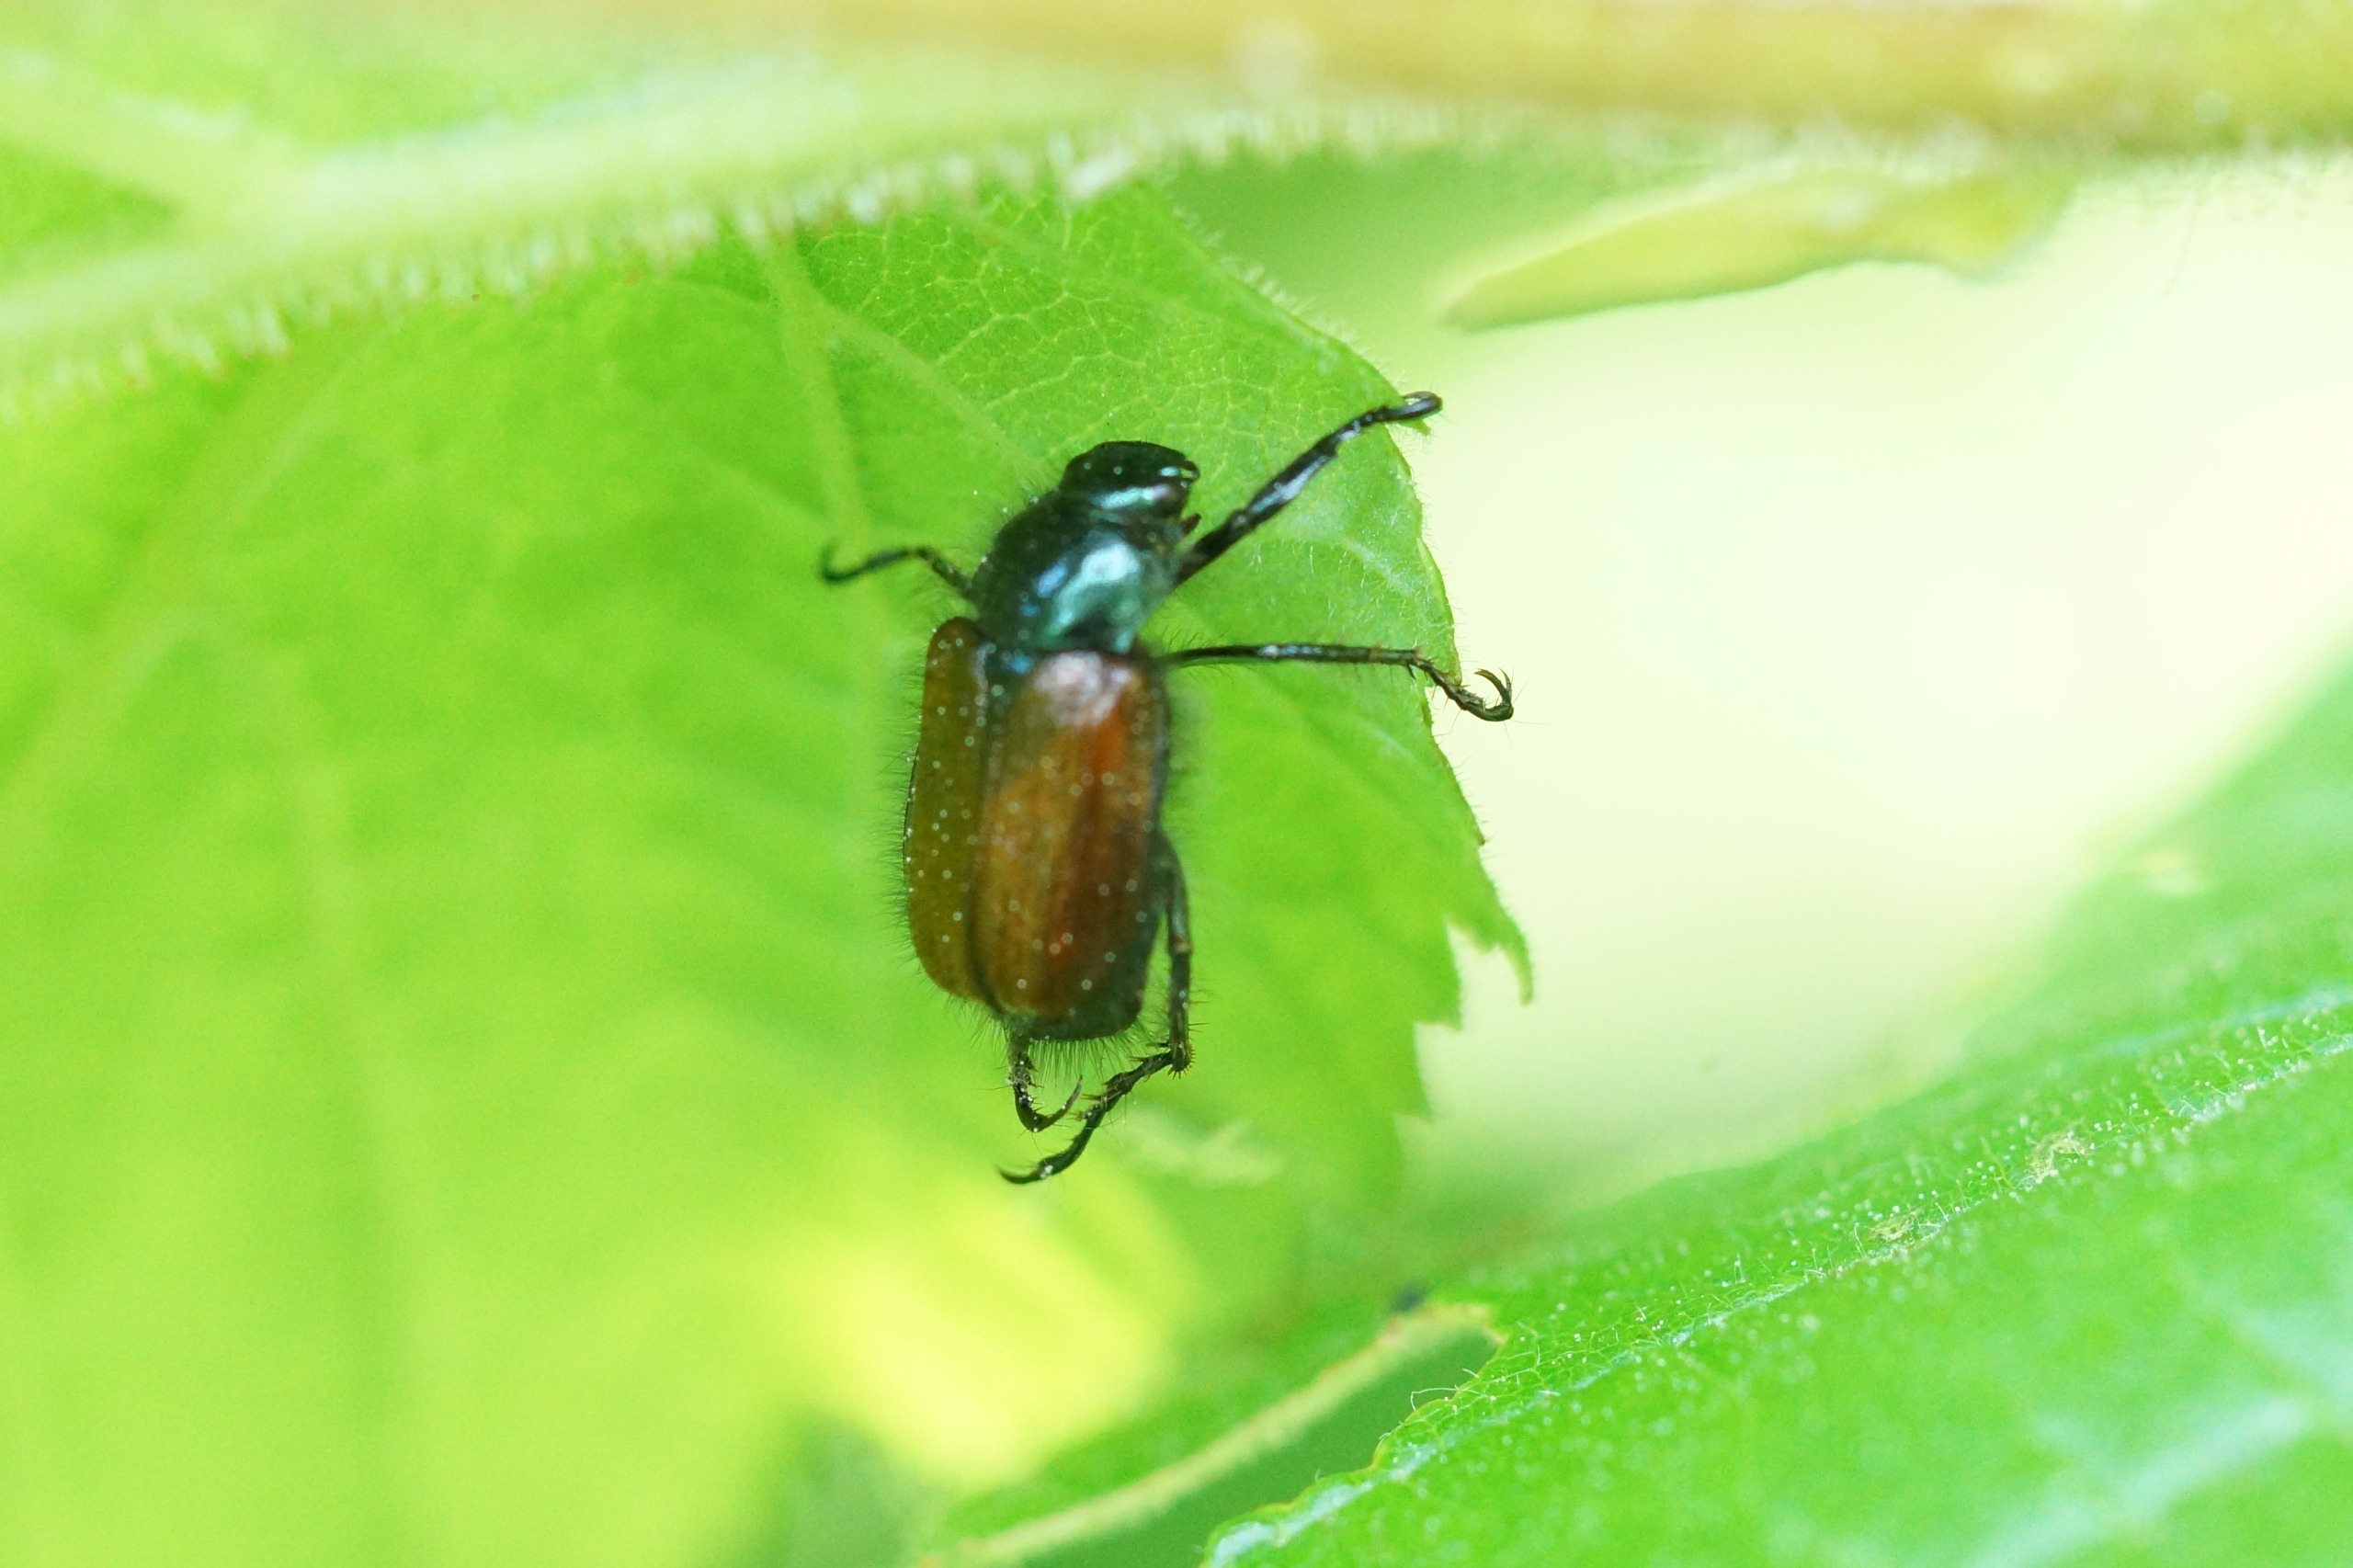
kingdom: Animalia
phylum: Arthropoda
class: Insecta
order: Coleoptera
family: Scarabaeidae
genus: Phyllopertha
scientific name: Phyllopertha horticola
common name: Gåsebille
